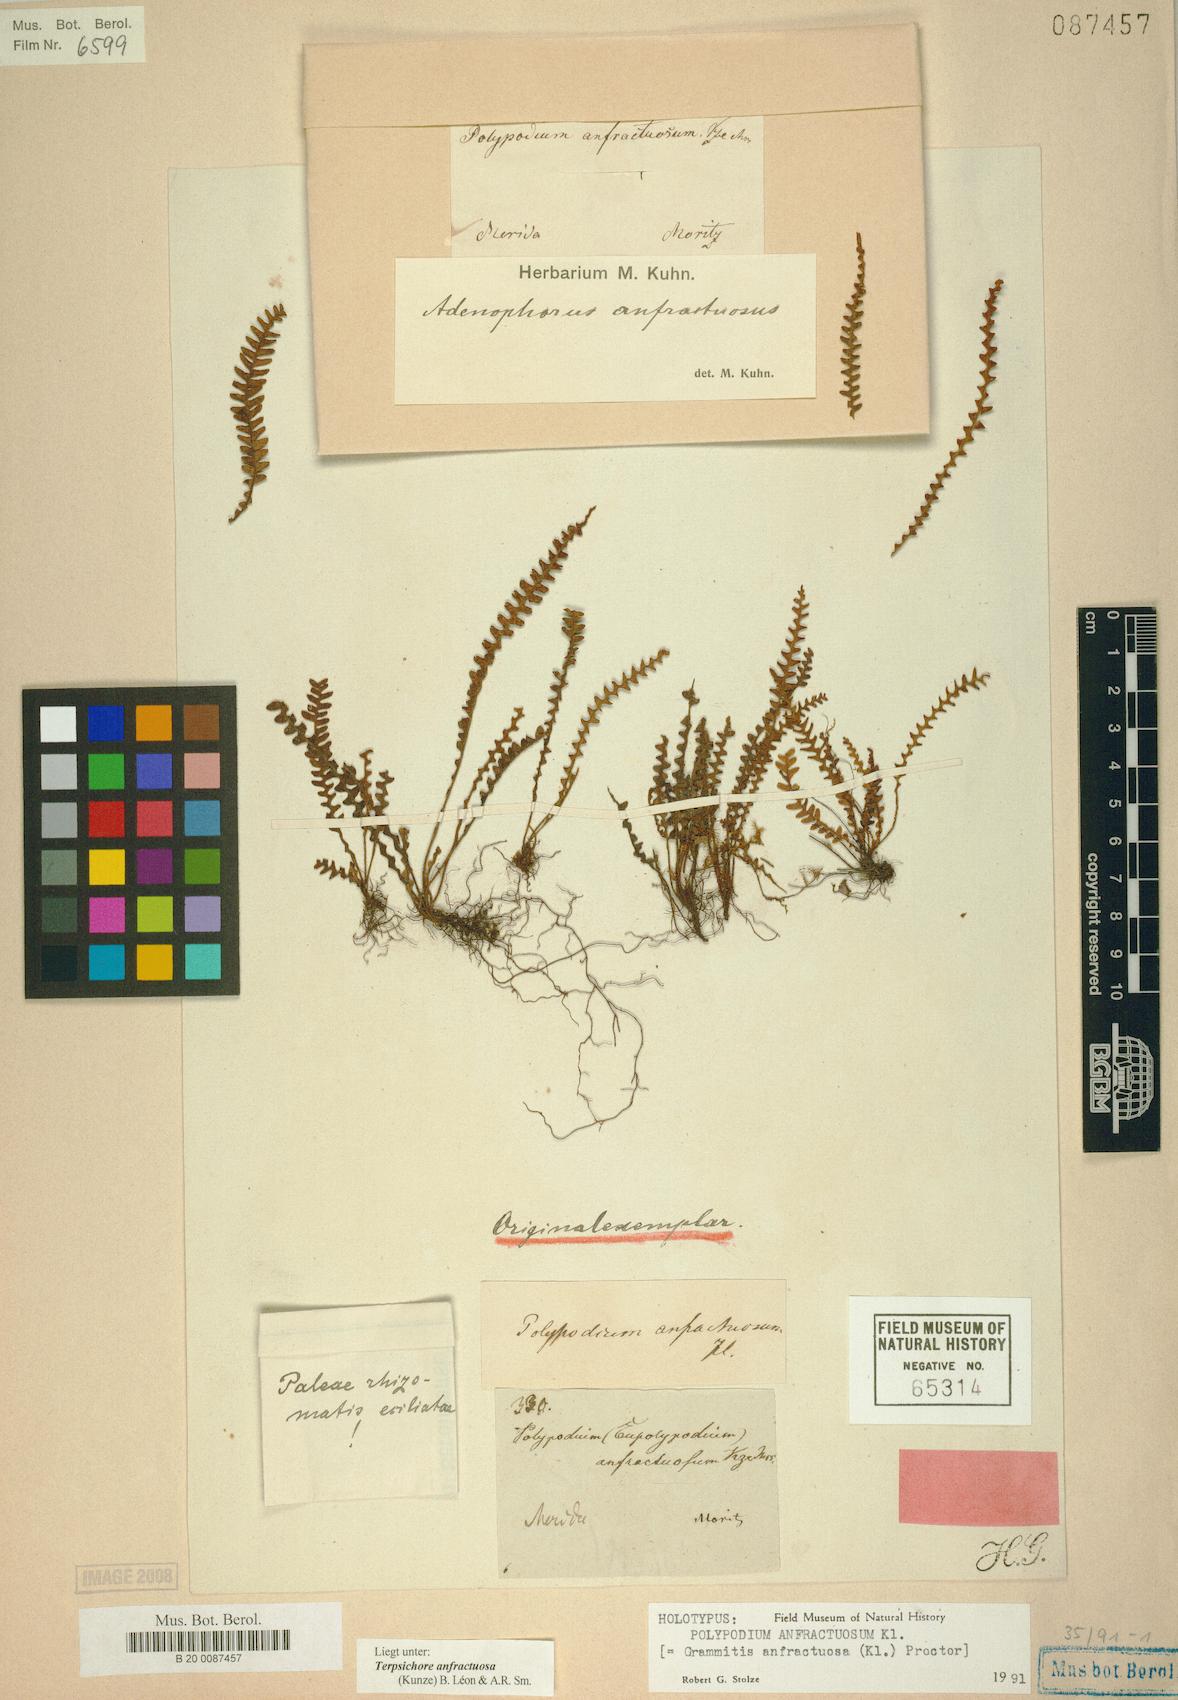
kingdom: Plantae
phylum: Tracheophyta
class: Polypodiopsida
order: Polypodiales
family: Polypodiaceae
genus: Ascogrammitis
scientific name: Ascogrammitis anfractuosa
